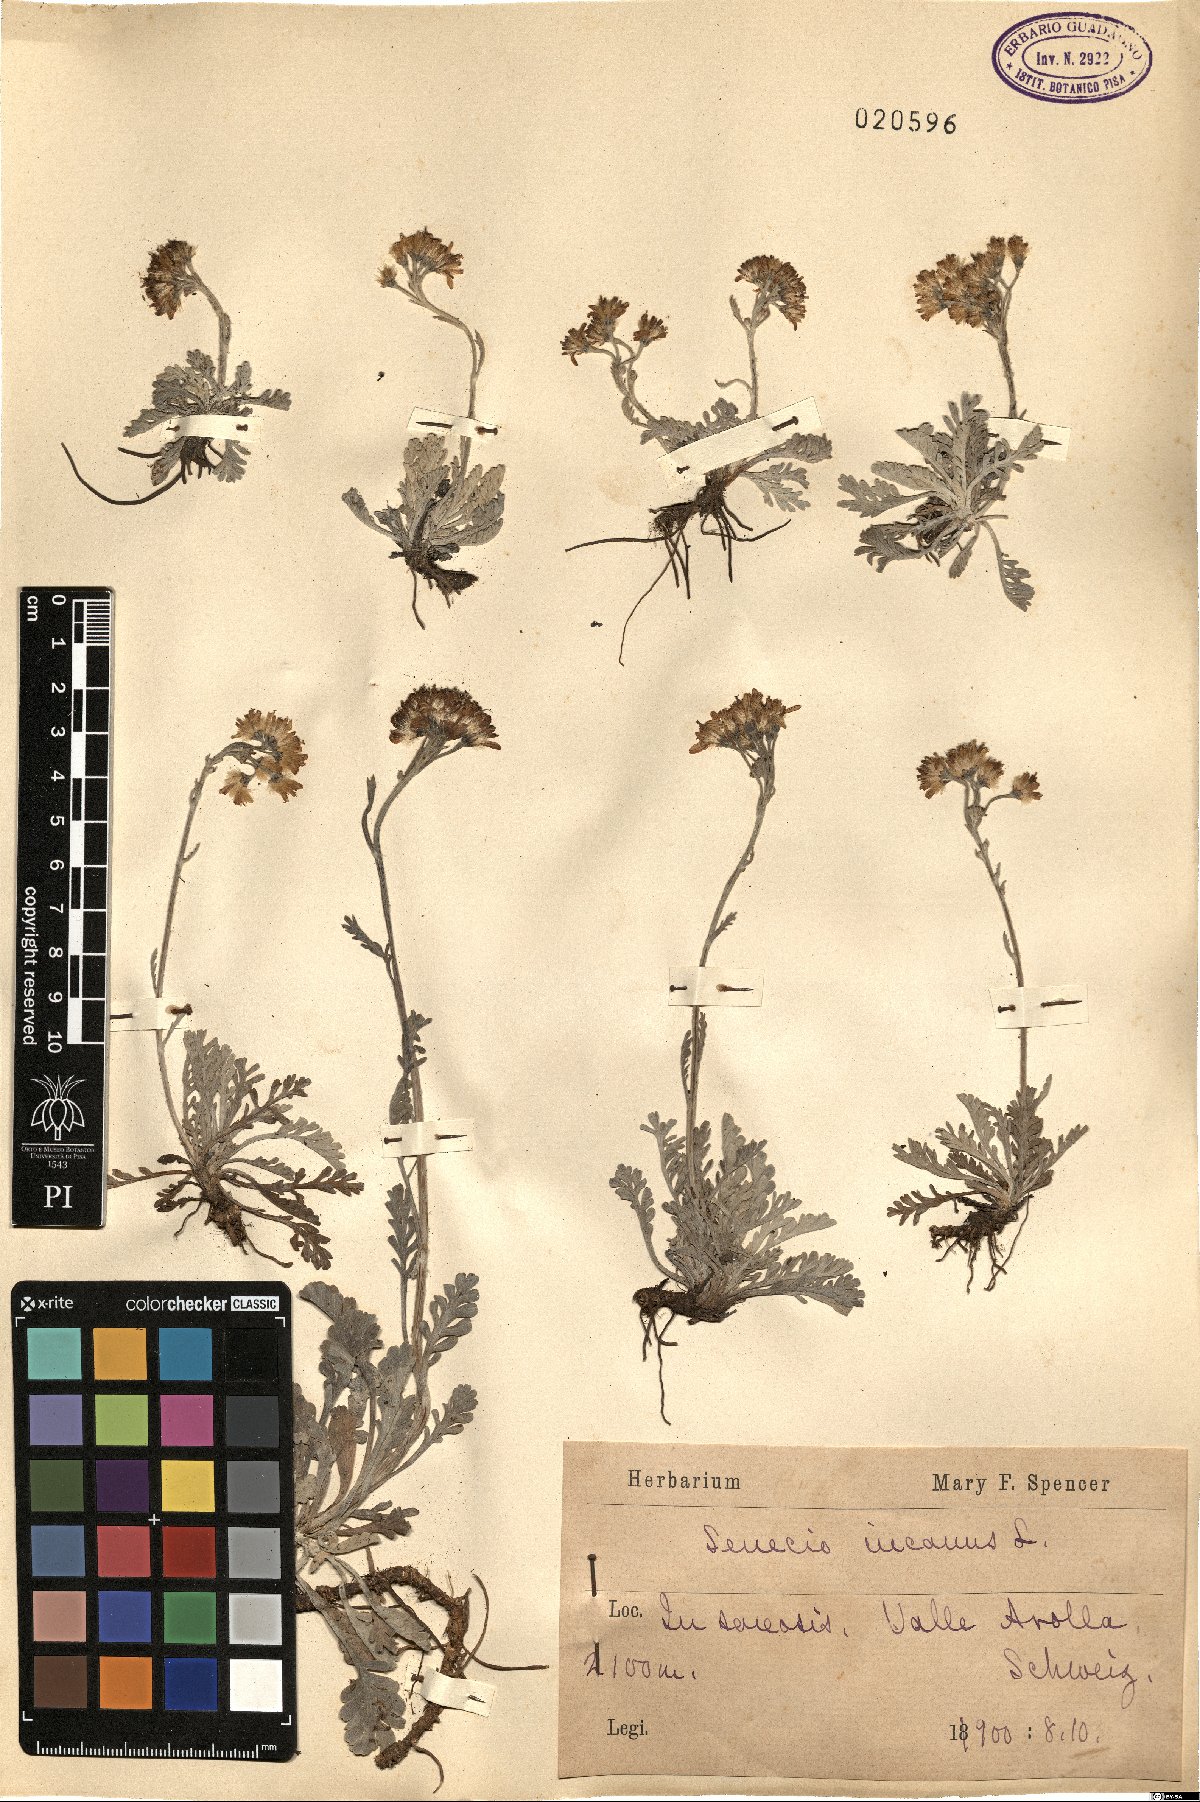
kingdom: Plantae
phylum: Tracheophyta
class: Magnoliopsida
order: Asterales
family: Asteraceae
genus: Jacobaea
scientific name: Jacobaea incana
